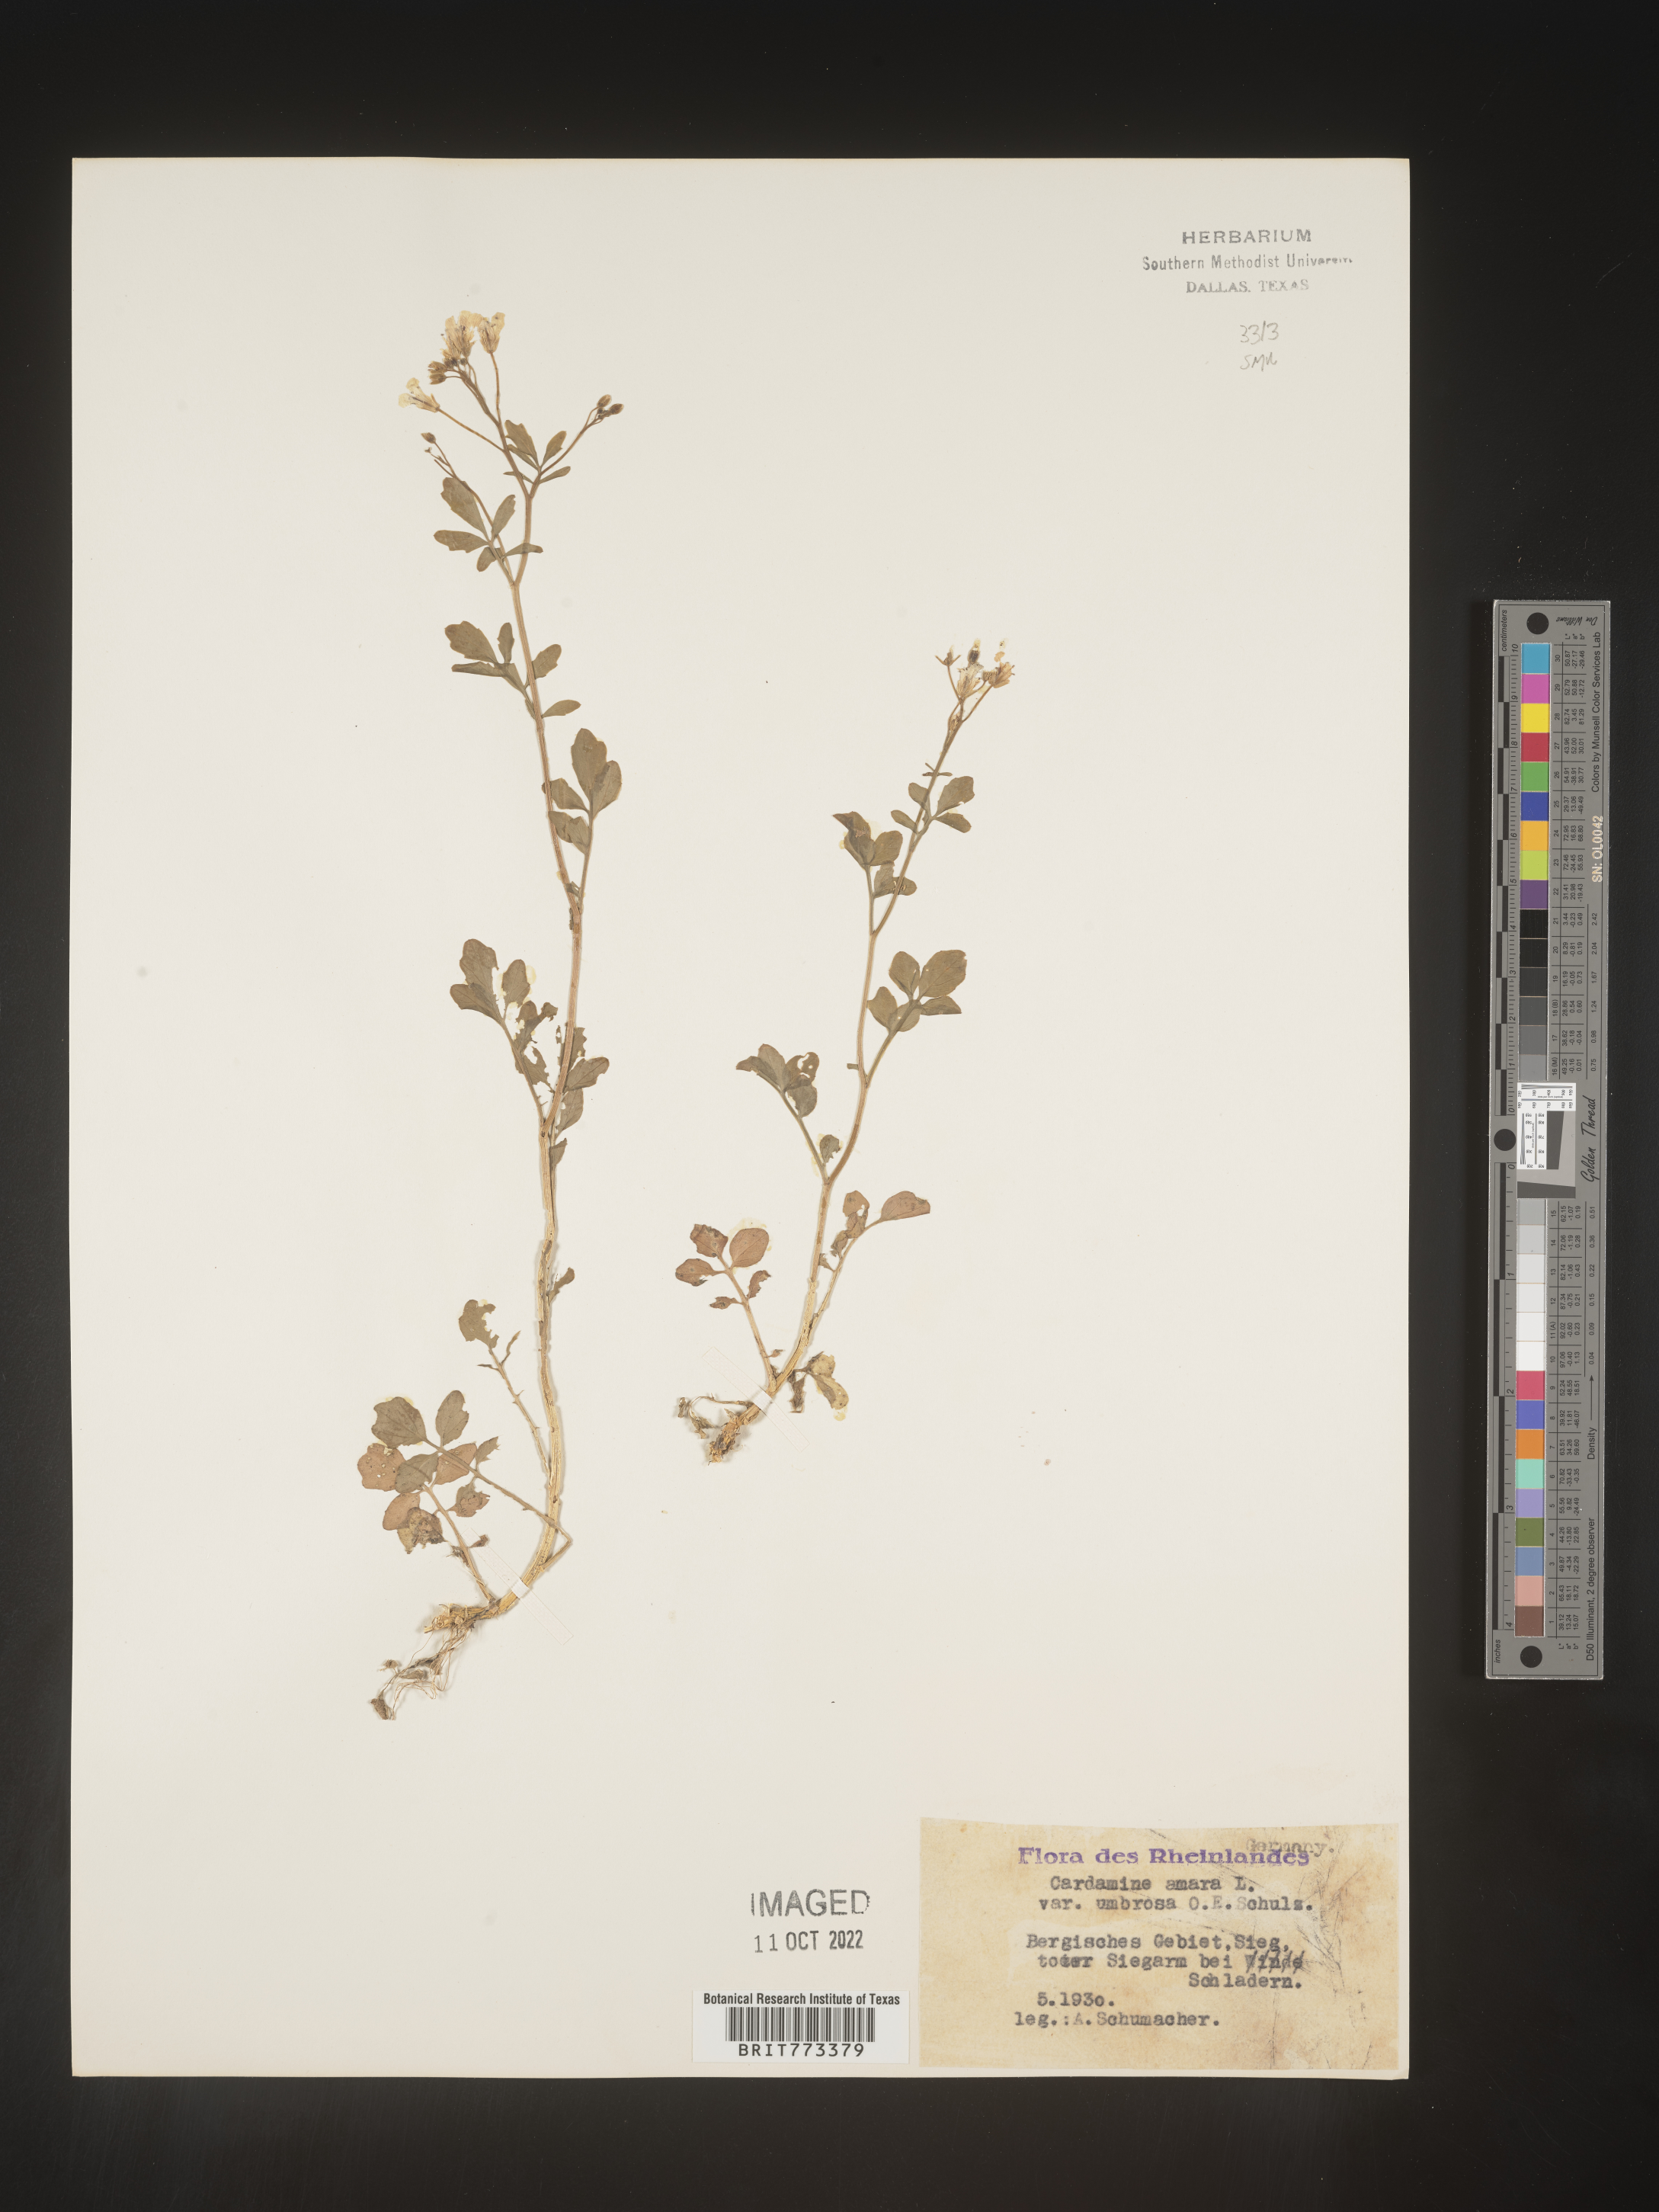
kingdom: Plantae
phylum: Tracheophyta
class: Magnoliopsida
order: Brassicales
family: Brassicaceae
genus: Cardamine
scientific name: Cardamine
